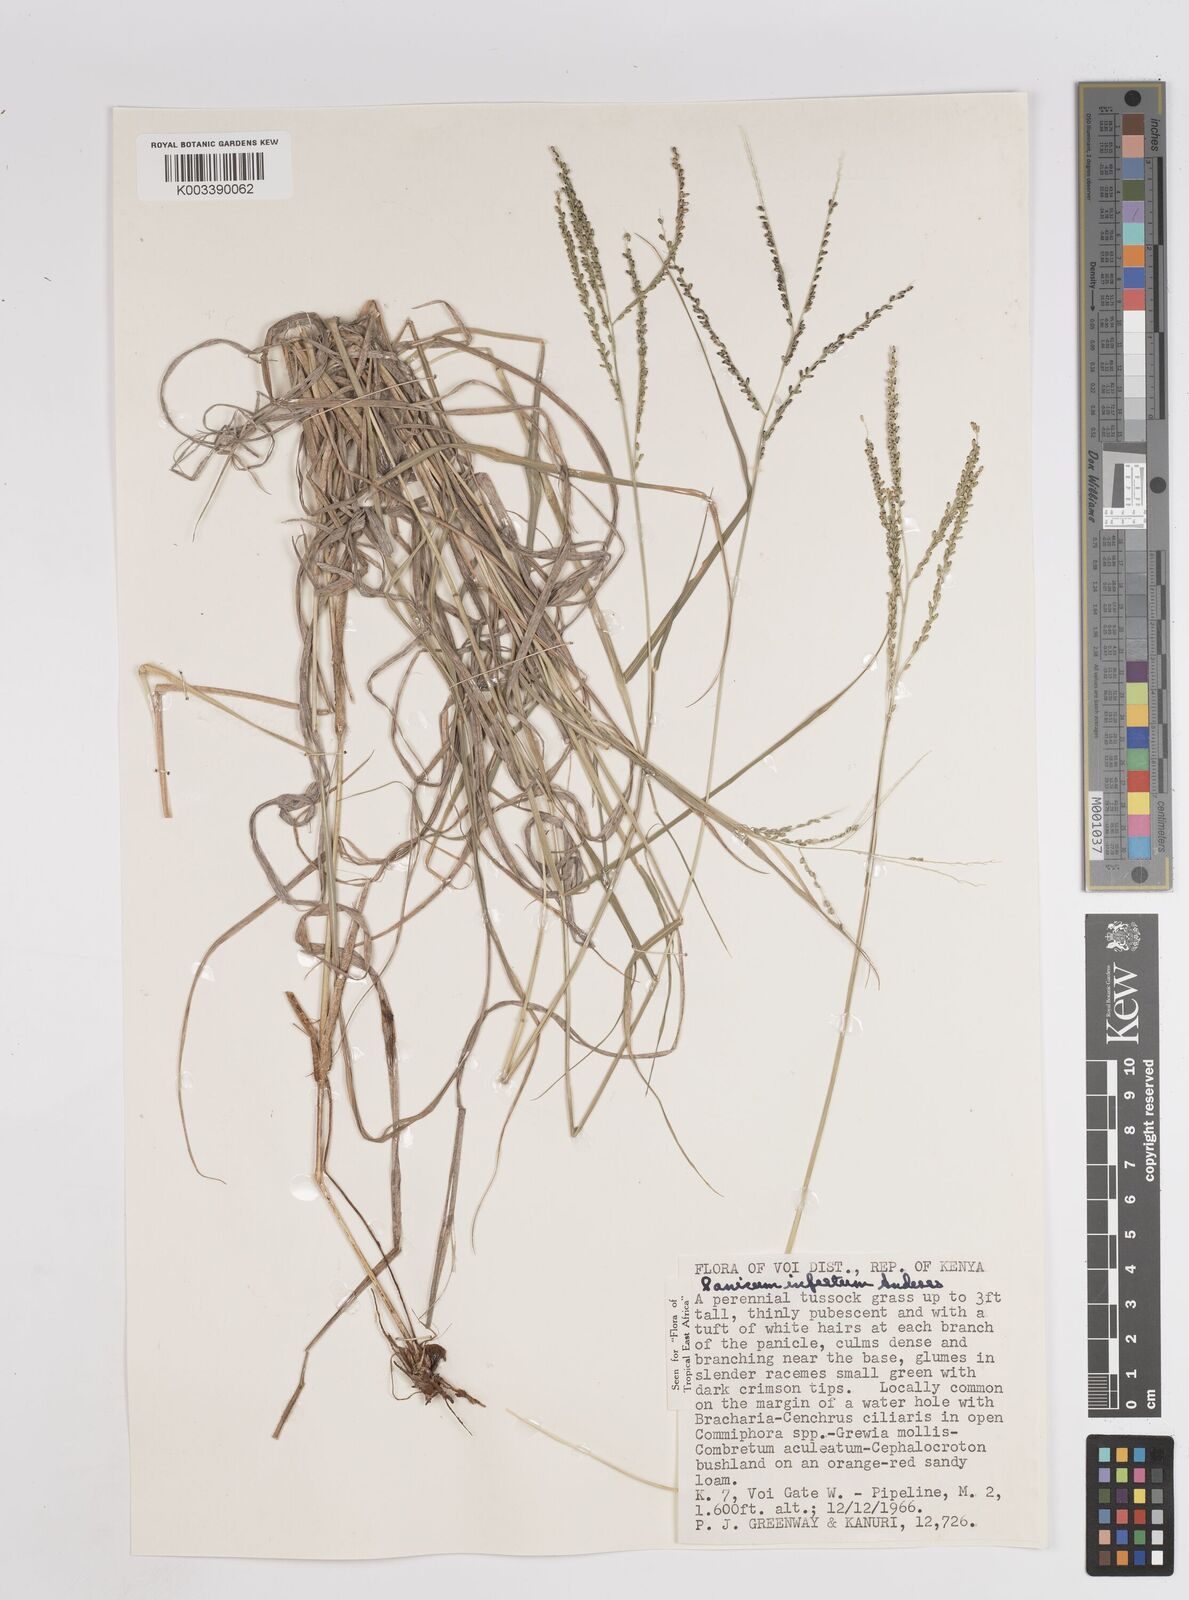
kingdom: Plantae
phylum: Tracheophyta
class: Liliopsida
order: Poales
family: Poaceae
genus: Megathyrsus
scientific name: Megathyrsus infestus
